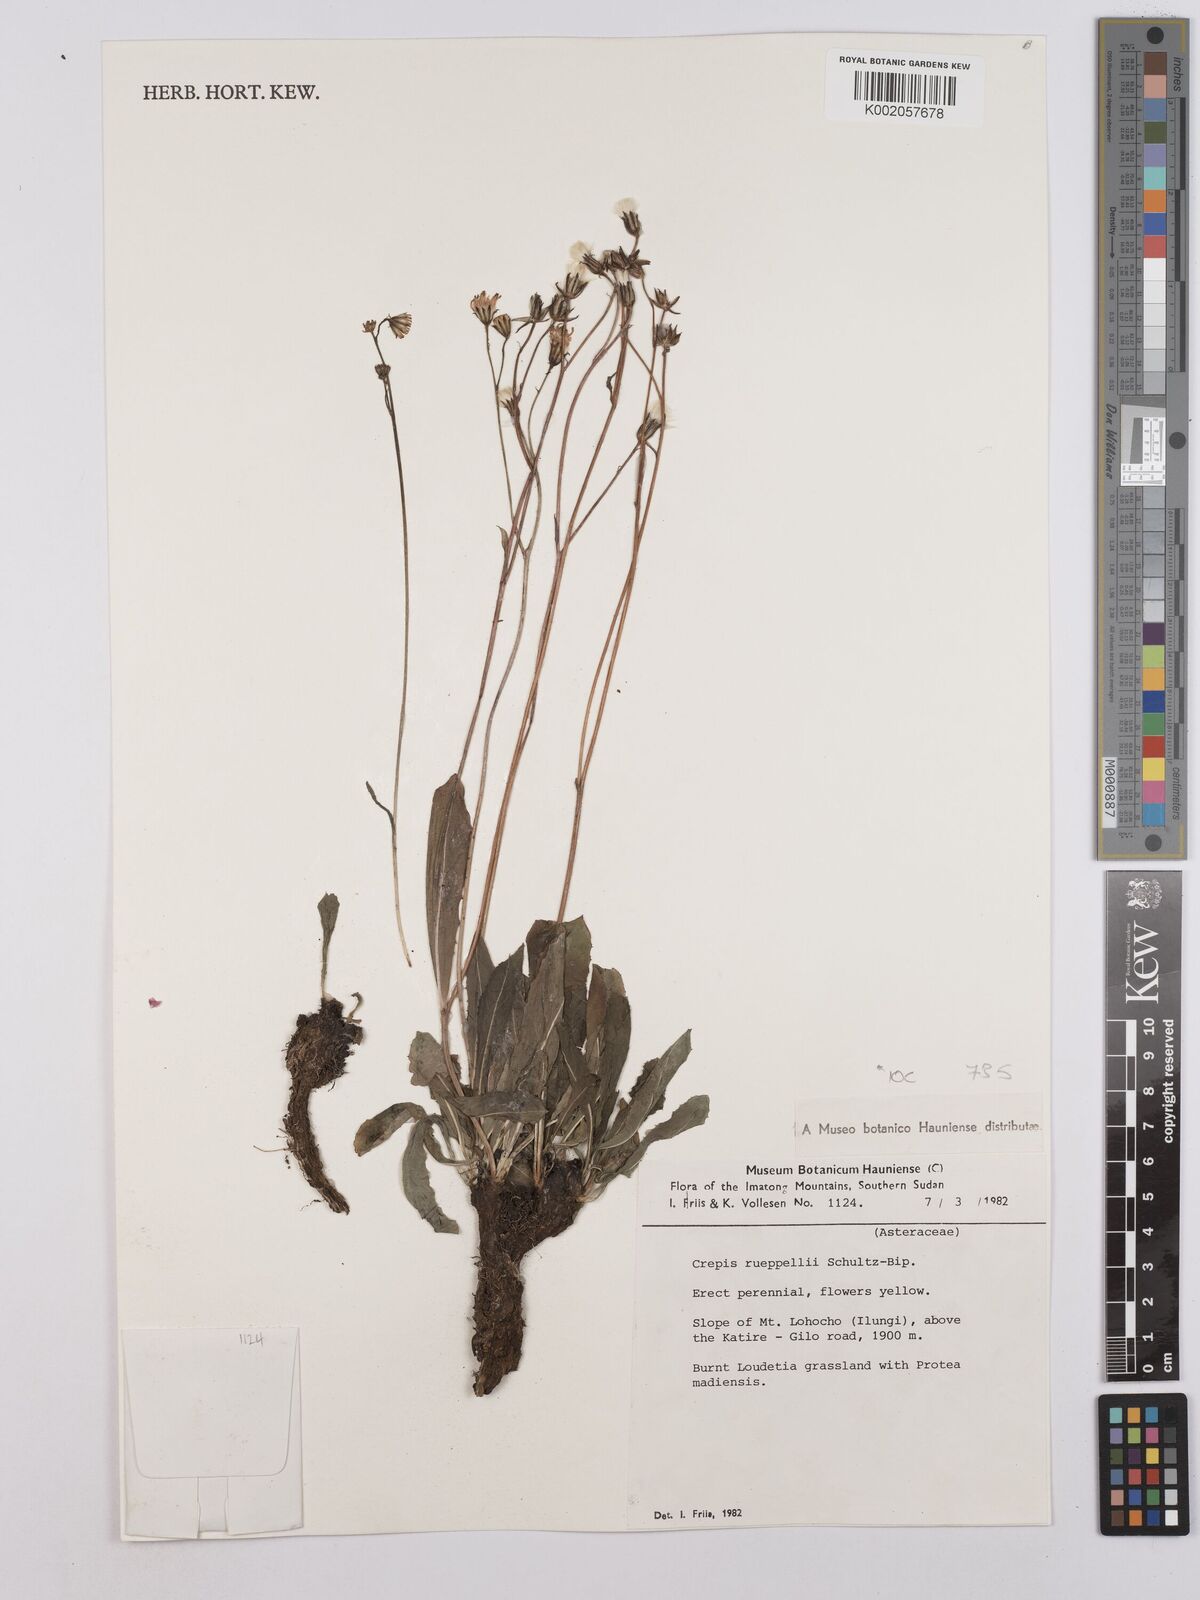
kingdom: Plantae
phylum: Tracheophyta
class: Magnoliopsida
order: Asterales
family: Asteraceae
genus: Crepis
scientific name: Crepis rueppellii
